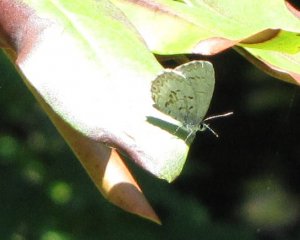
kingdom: Animalia
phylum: Arthropoda
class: Insecta
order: Lepidoptera
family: Lycaenidae
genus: Celastrina
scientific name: Celastrina lucia
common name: Northern Spring Azure
